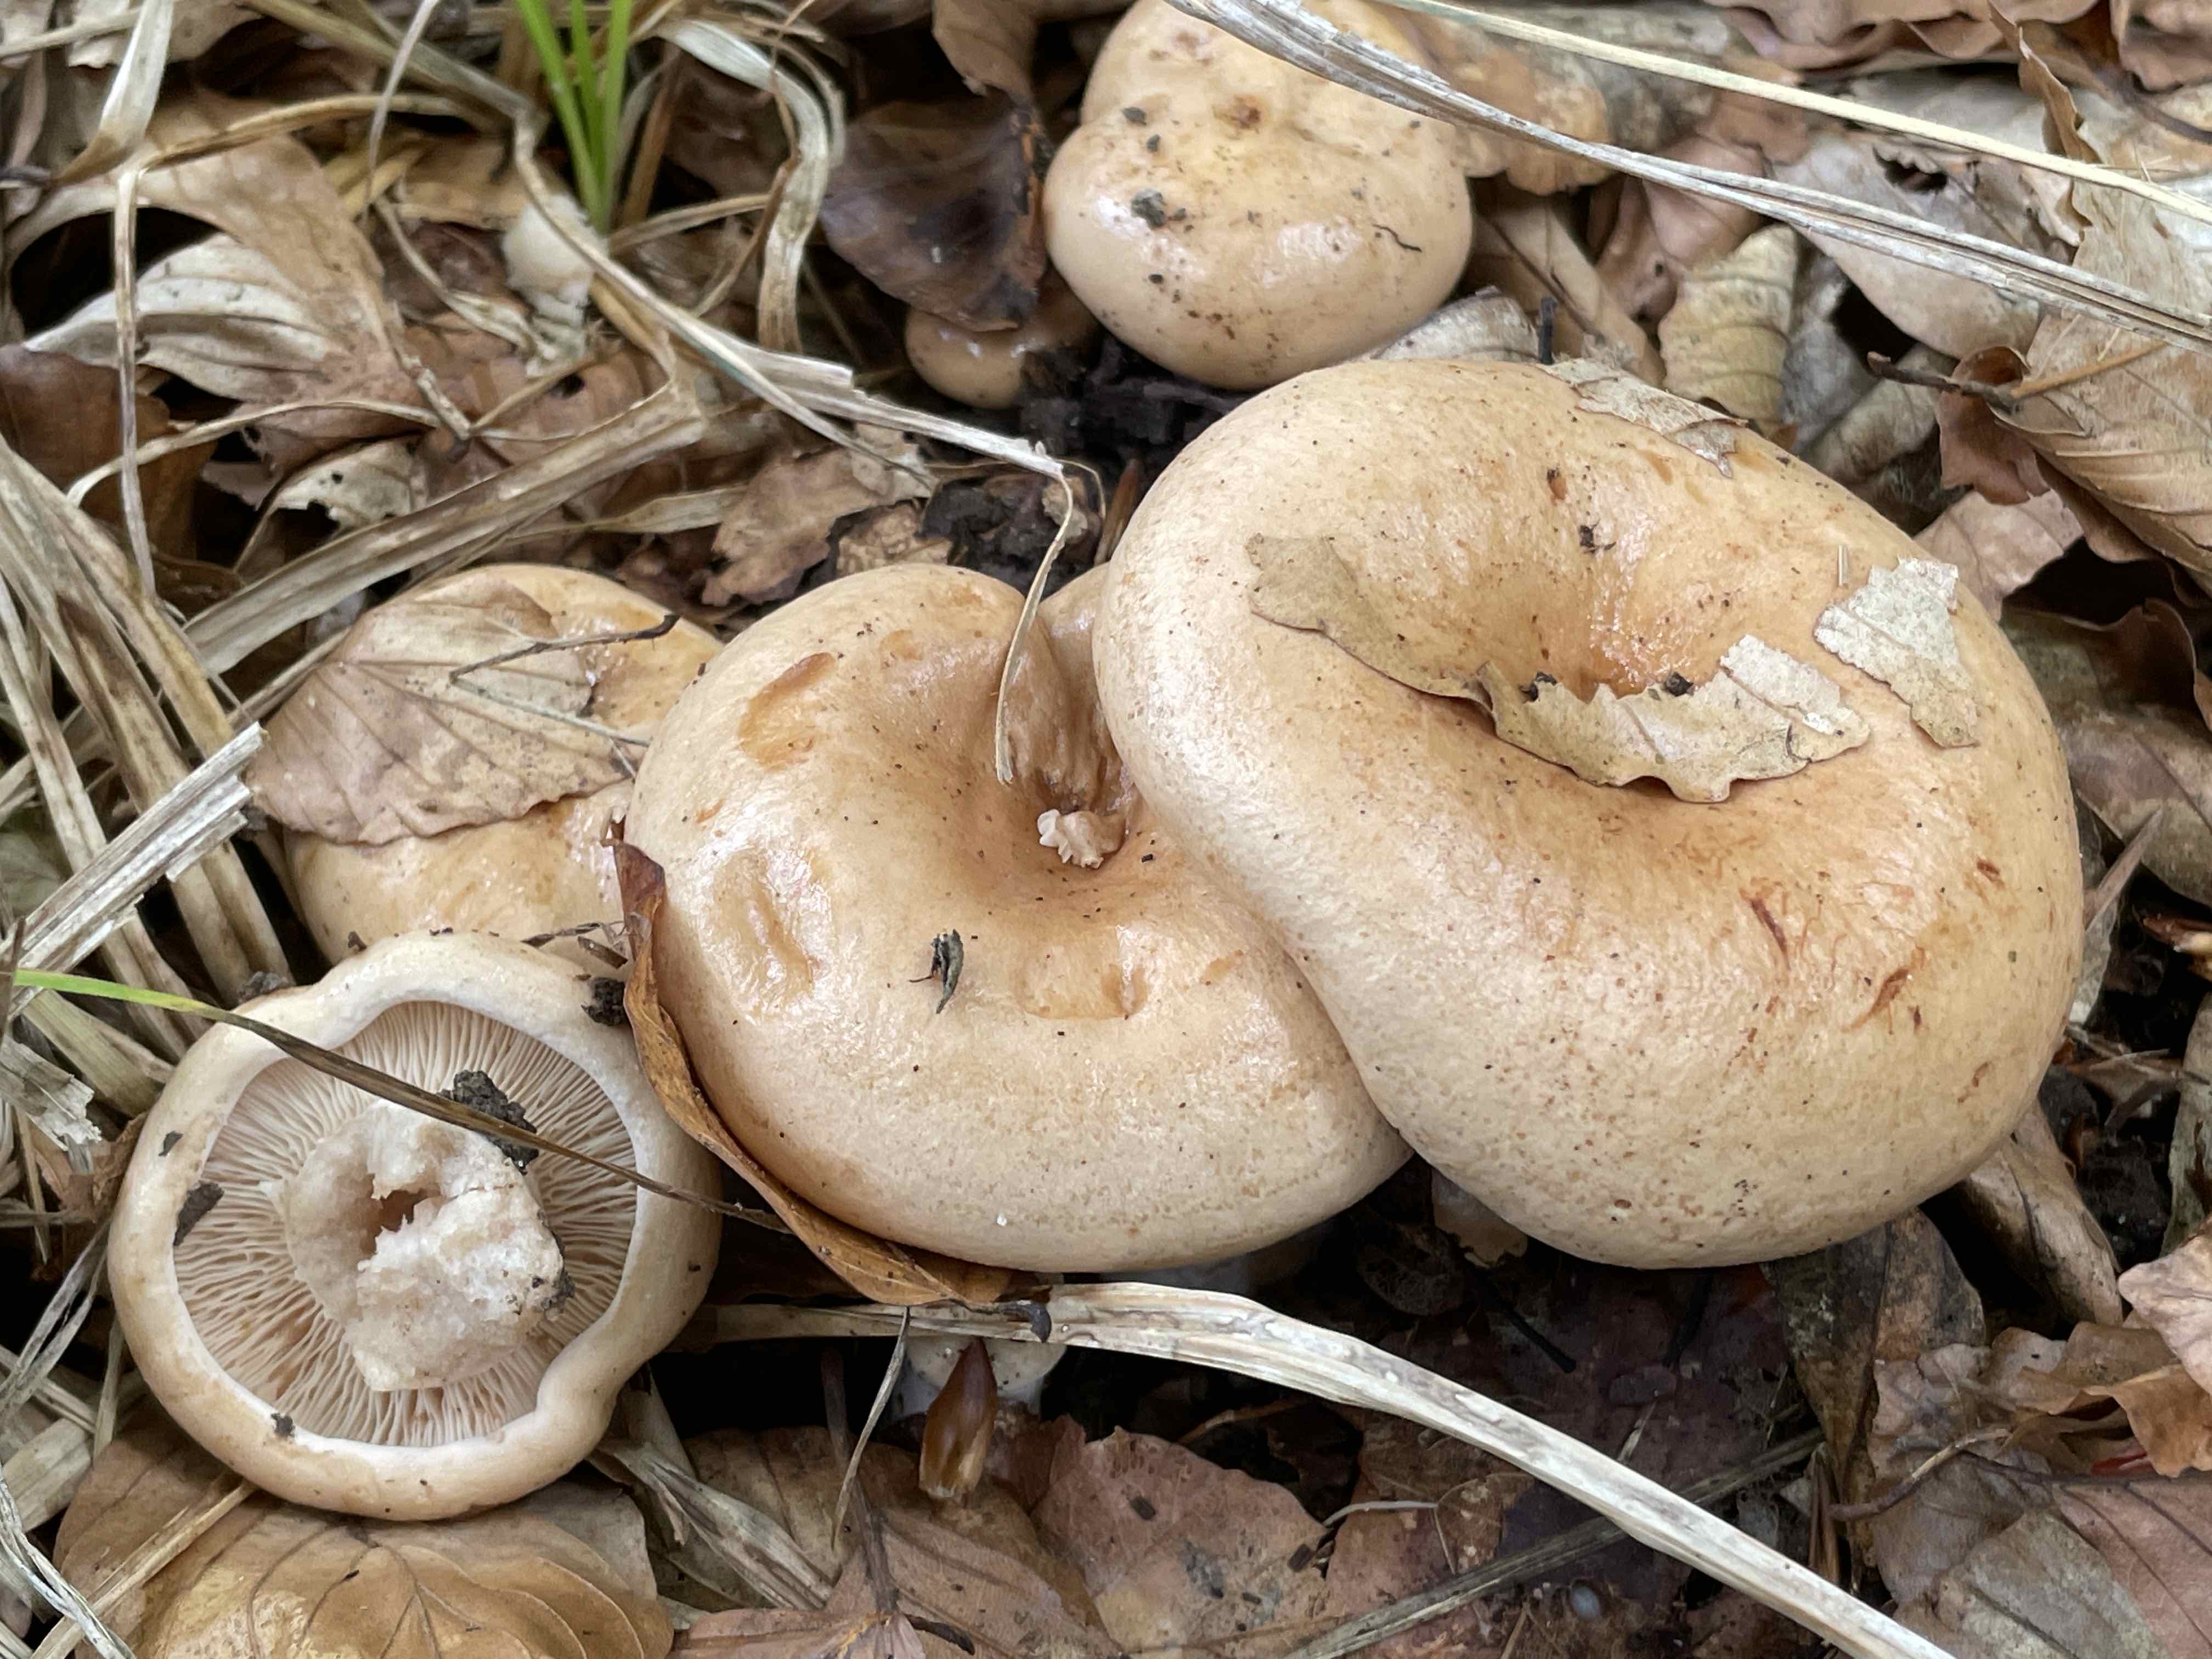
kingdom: Fungi
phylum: Basidiomycota
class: Agaricomycetes
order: Russulales
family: Russulaceae
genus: Lactarius
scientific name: Lactarius pallidus
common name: bleg mælkehat
